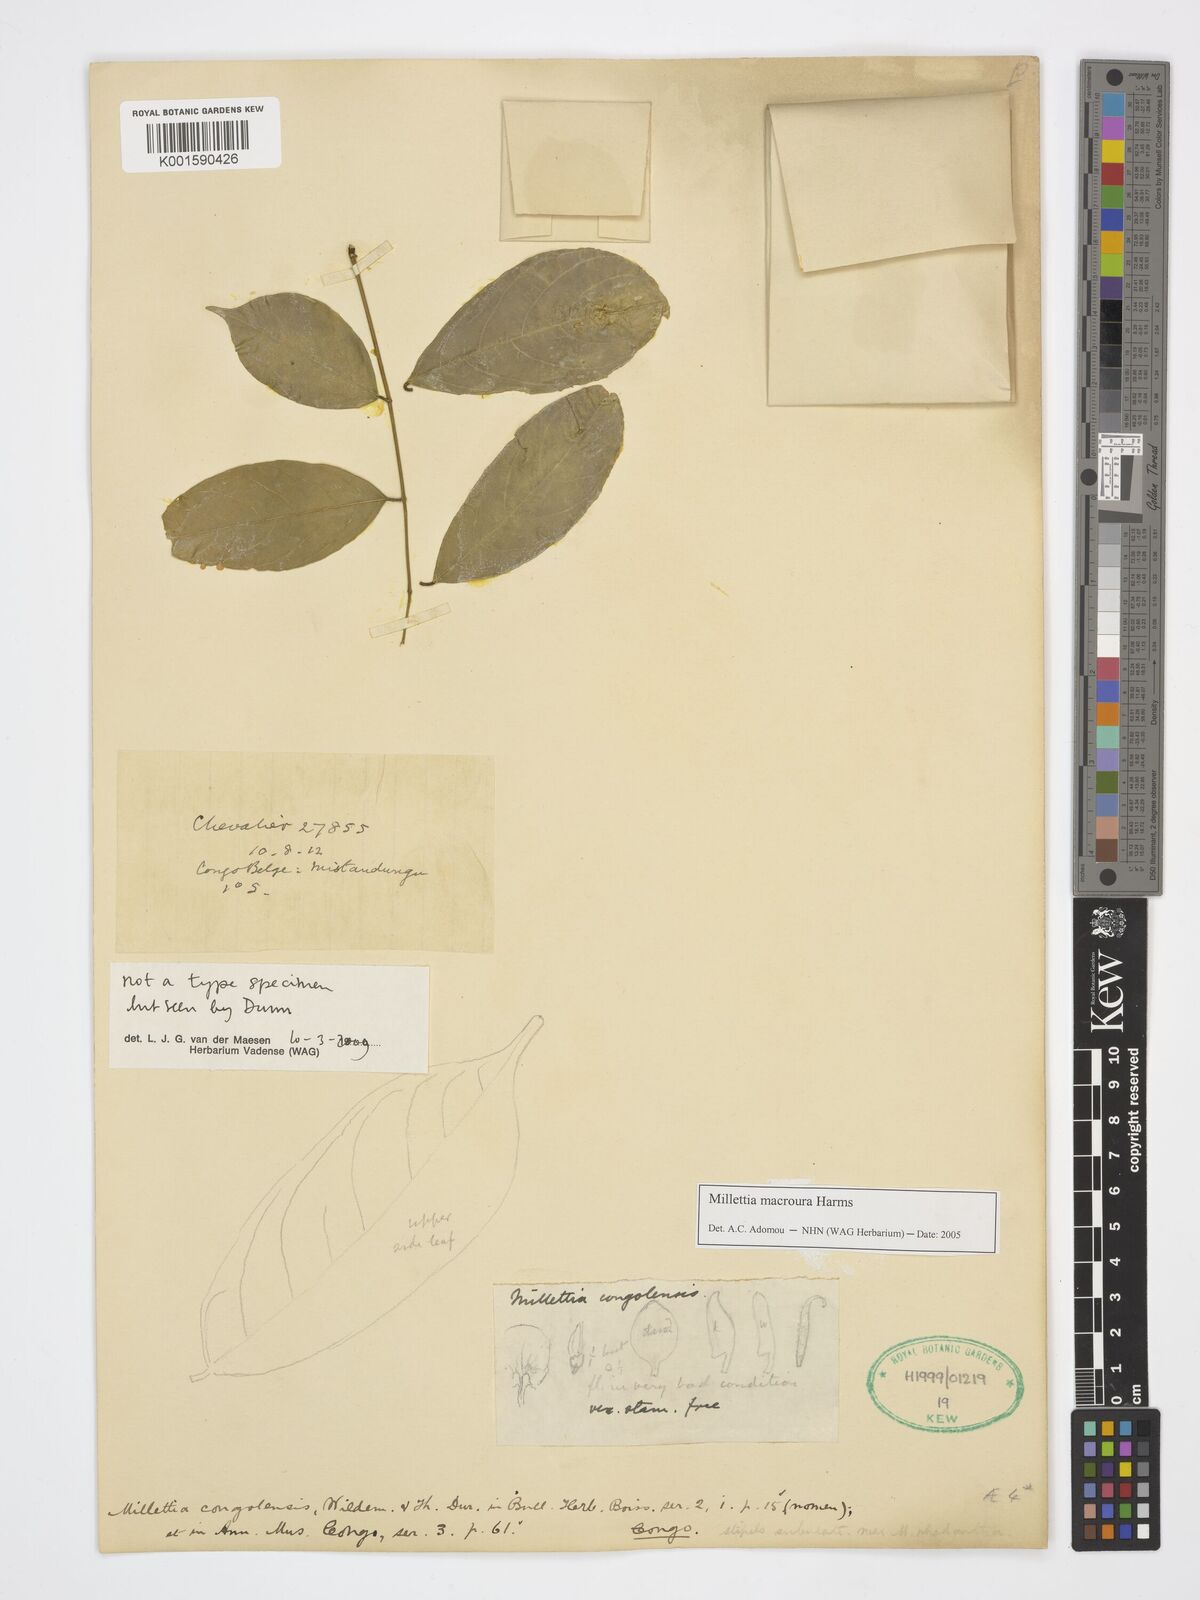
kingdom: Plantae
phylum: Tracheophyta
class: Magnoliopsida
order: Fabales
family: Fabaceae
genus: Millettia
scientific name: Millettia macroura
